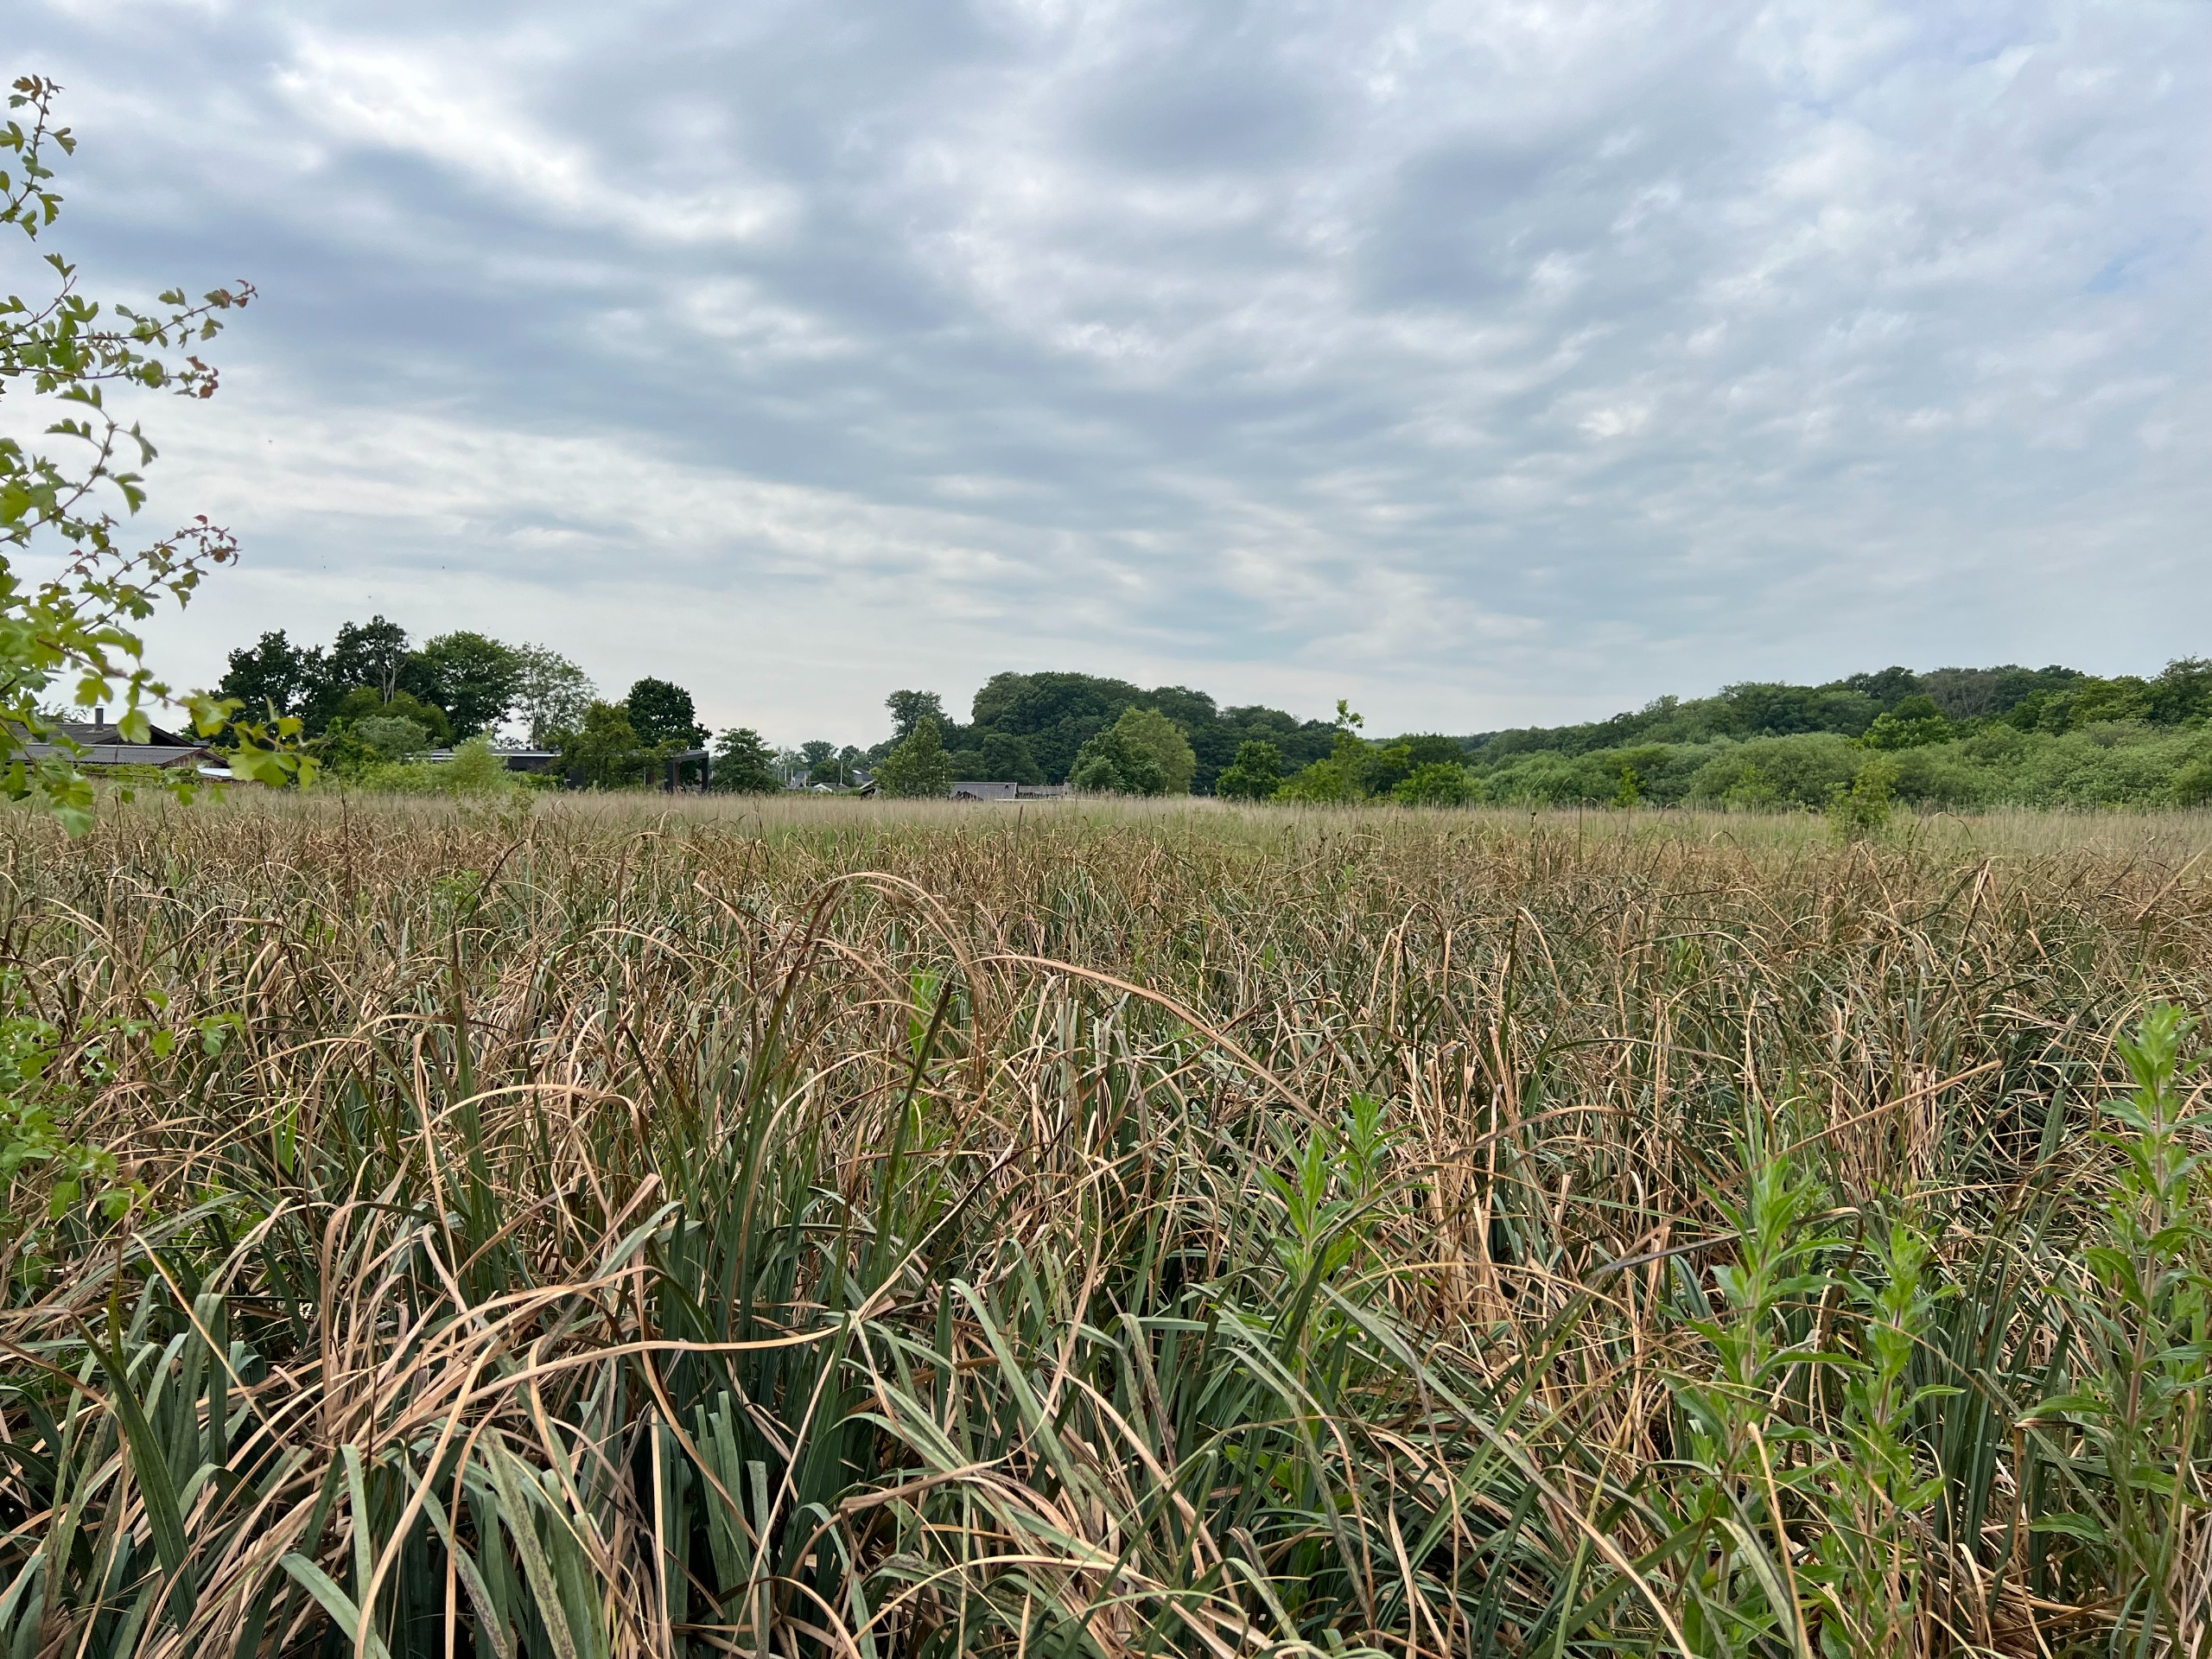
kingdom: Plantae
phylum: Tracheophyta
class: Liliopsida
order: Poales
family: Cyperaceae
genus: Cladium
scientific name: Cladium mariscus
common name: Hvas avneknippe
